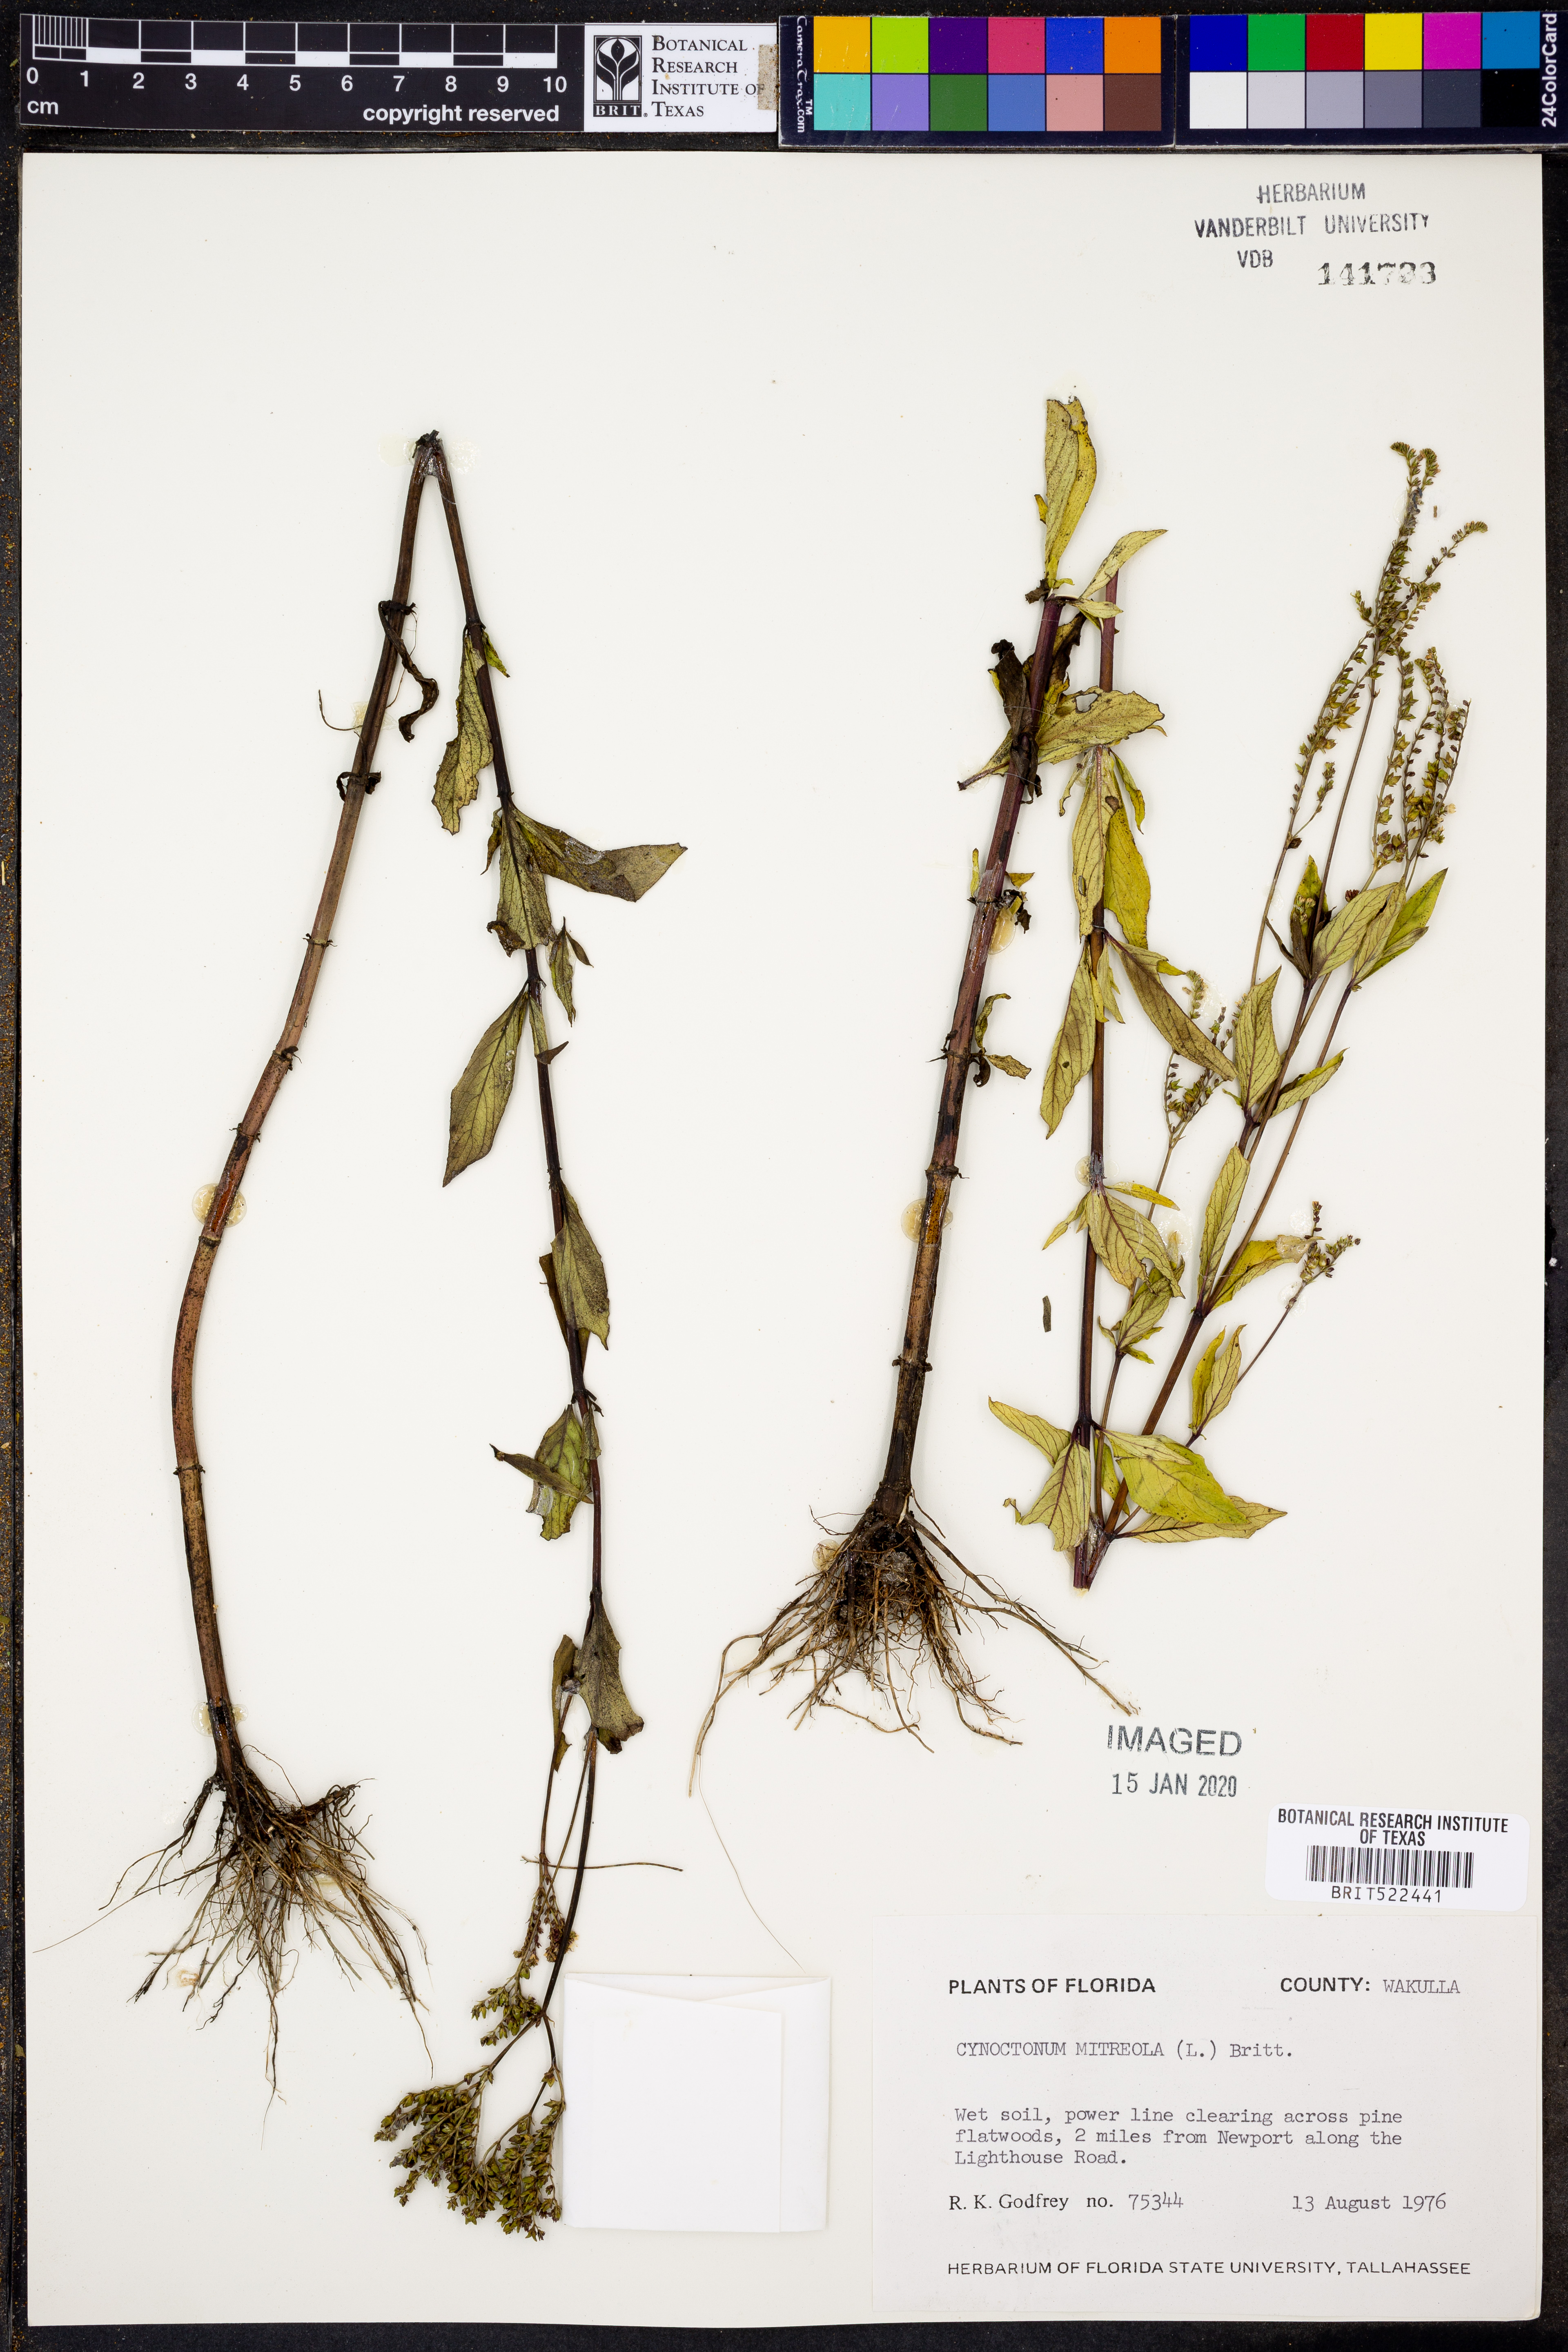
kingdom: Plantae
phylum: Tracheophyta
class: Magnoliopsida
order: Gentianales
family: Loganiaceae
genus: Mitreola
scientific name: Mitreola petiolata
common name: Lax hornpod
